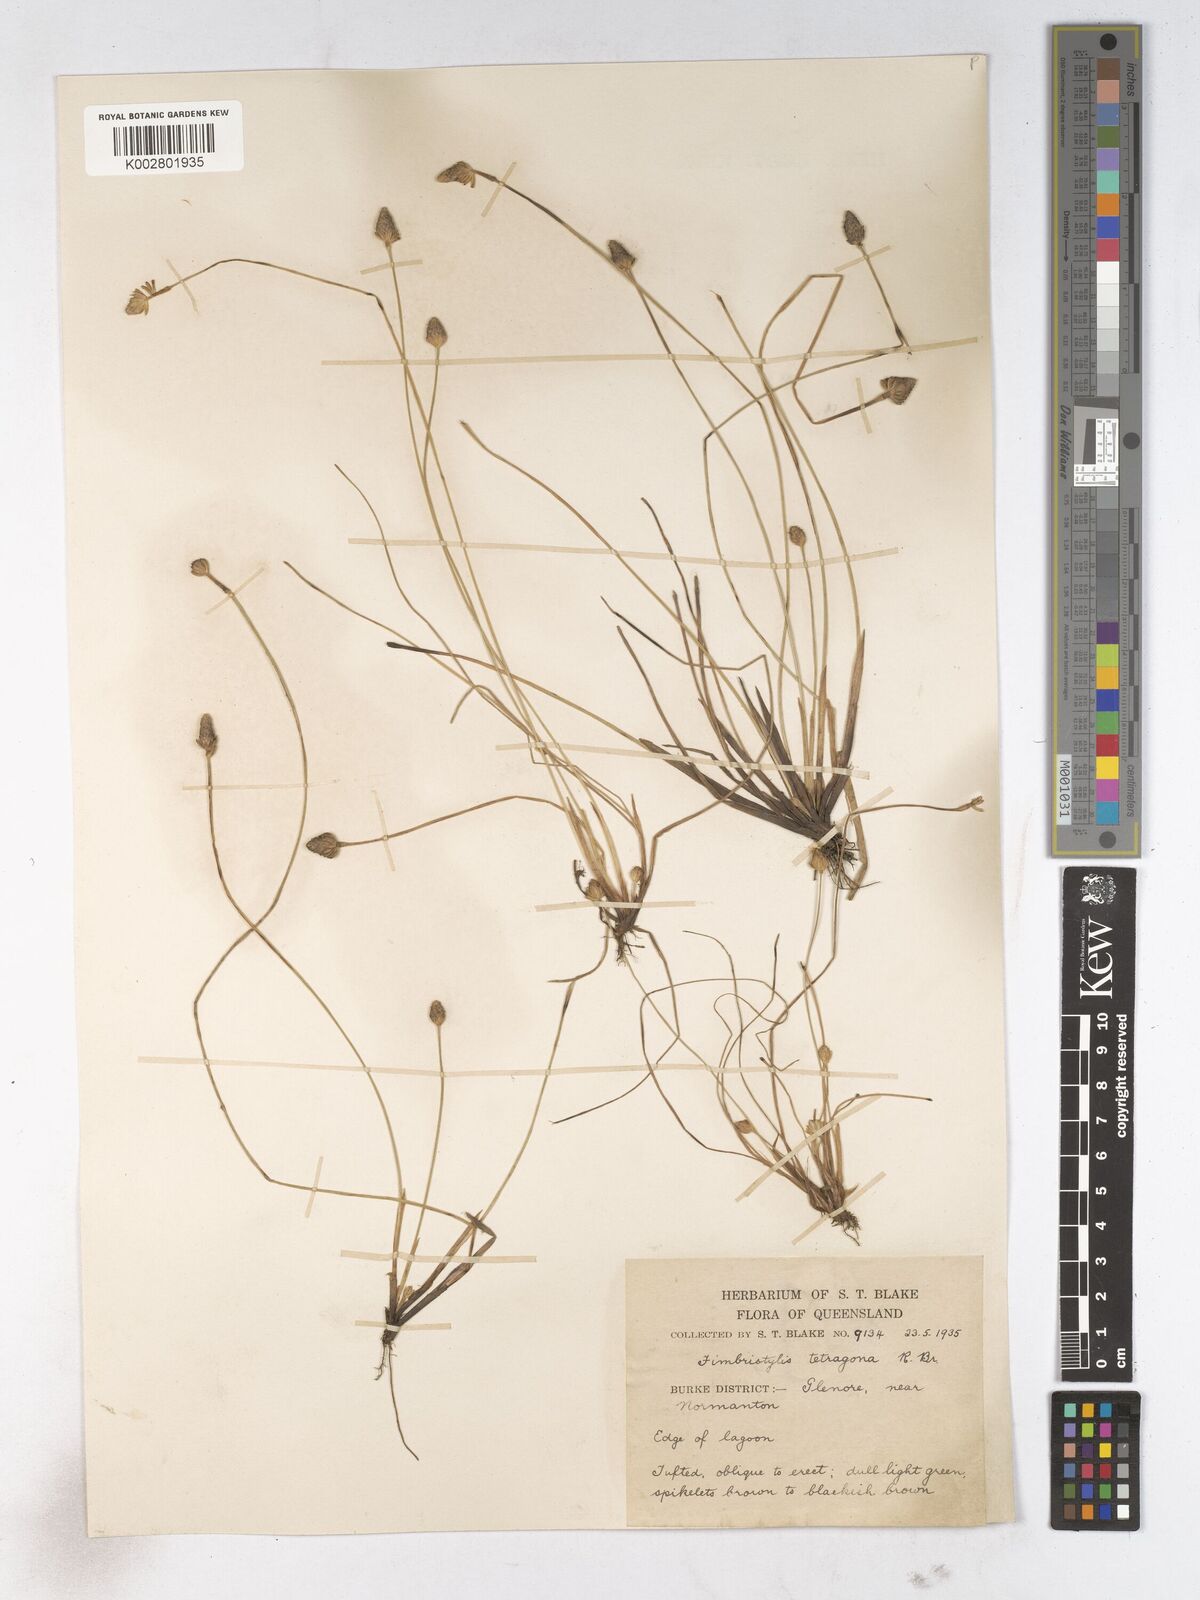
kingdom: Plantae
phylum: Tracheophyta
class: Liliopsida
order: Poales
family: Cyperaceae
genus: Fimbristylis
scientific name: Fimbristylis tetragona
